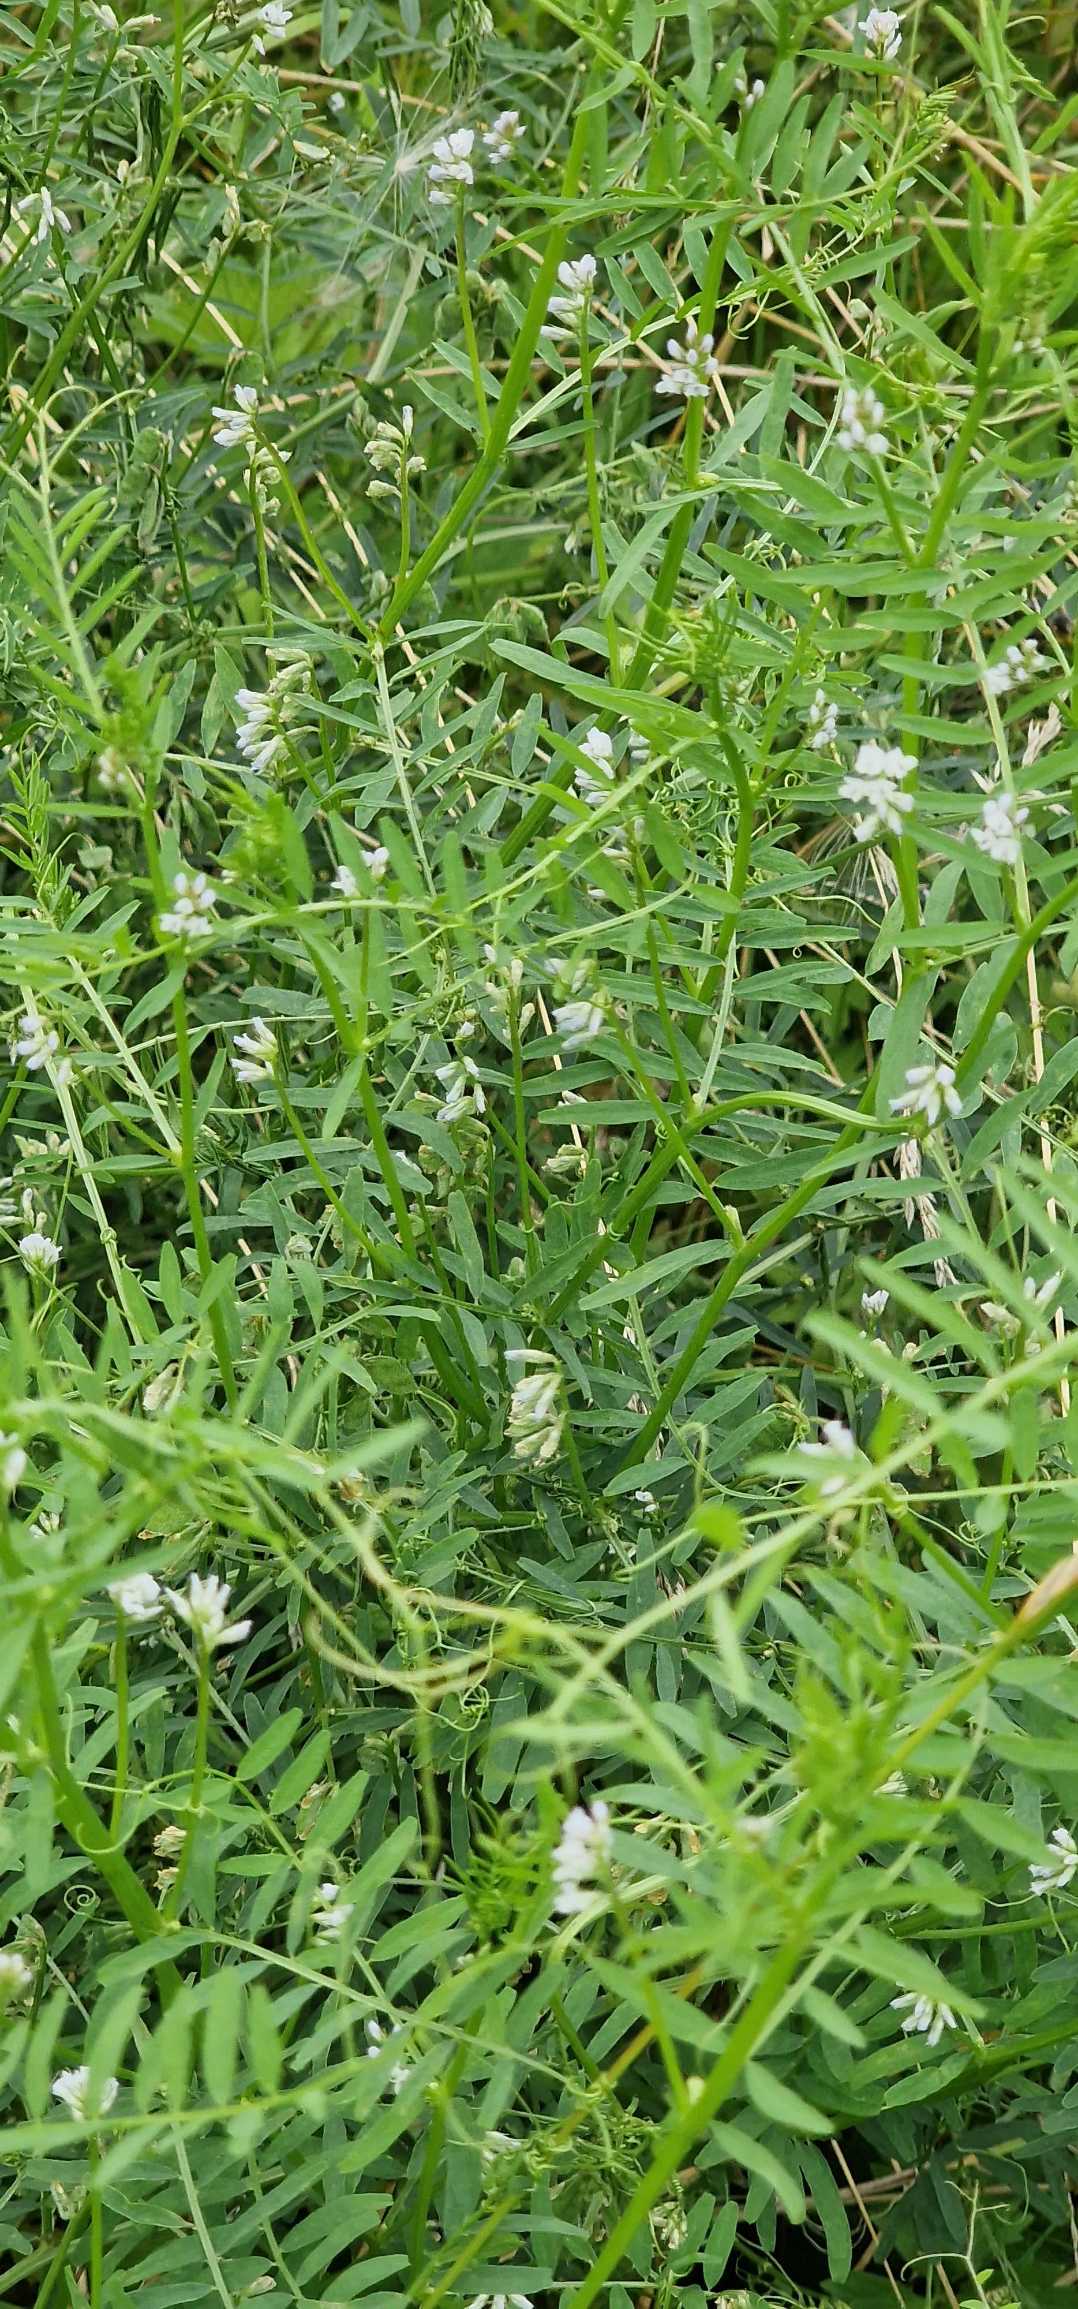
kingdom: Plantae
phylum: Tracheophyta
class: Magnoliopsida
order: Fabales
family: Fabaceae
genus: Vicia
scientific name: Vicia hirsuta
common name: Tofrøet vikke
